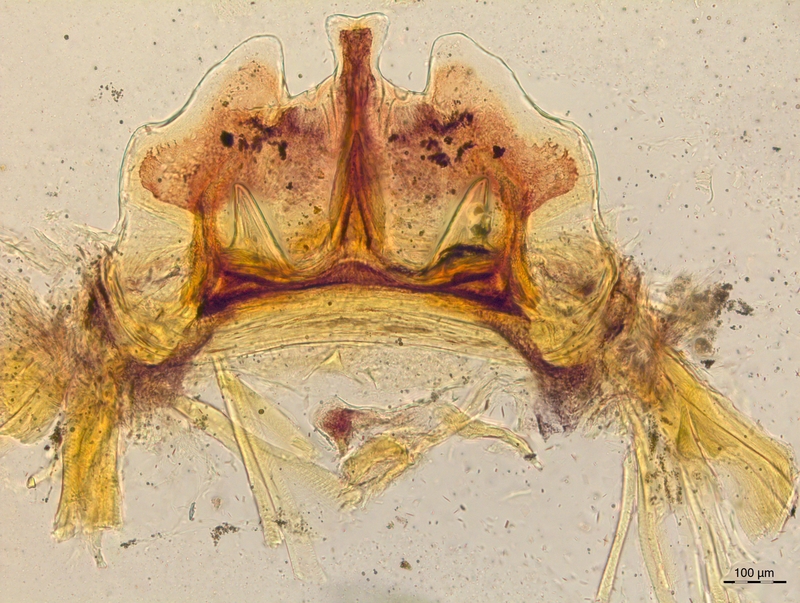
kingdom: Animalia
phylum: Arthropoda
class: Diplopoda
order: Chordeumatida
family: Craspedosomatidae
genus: Craspedosoma
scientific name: Craspedosoma rawlinsii
